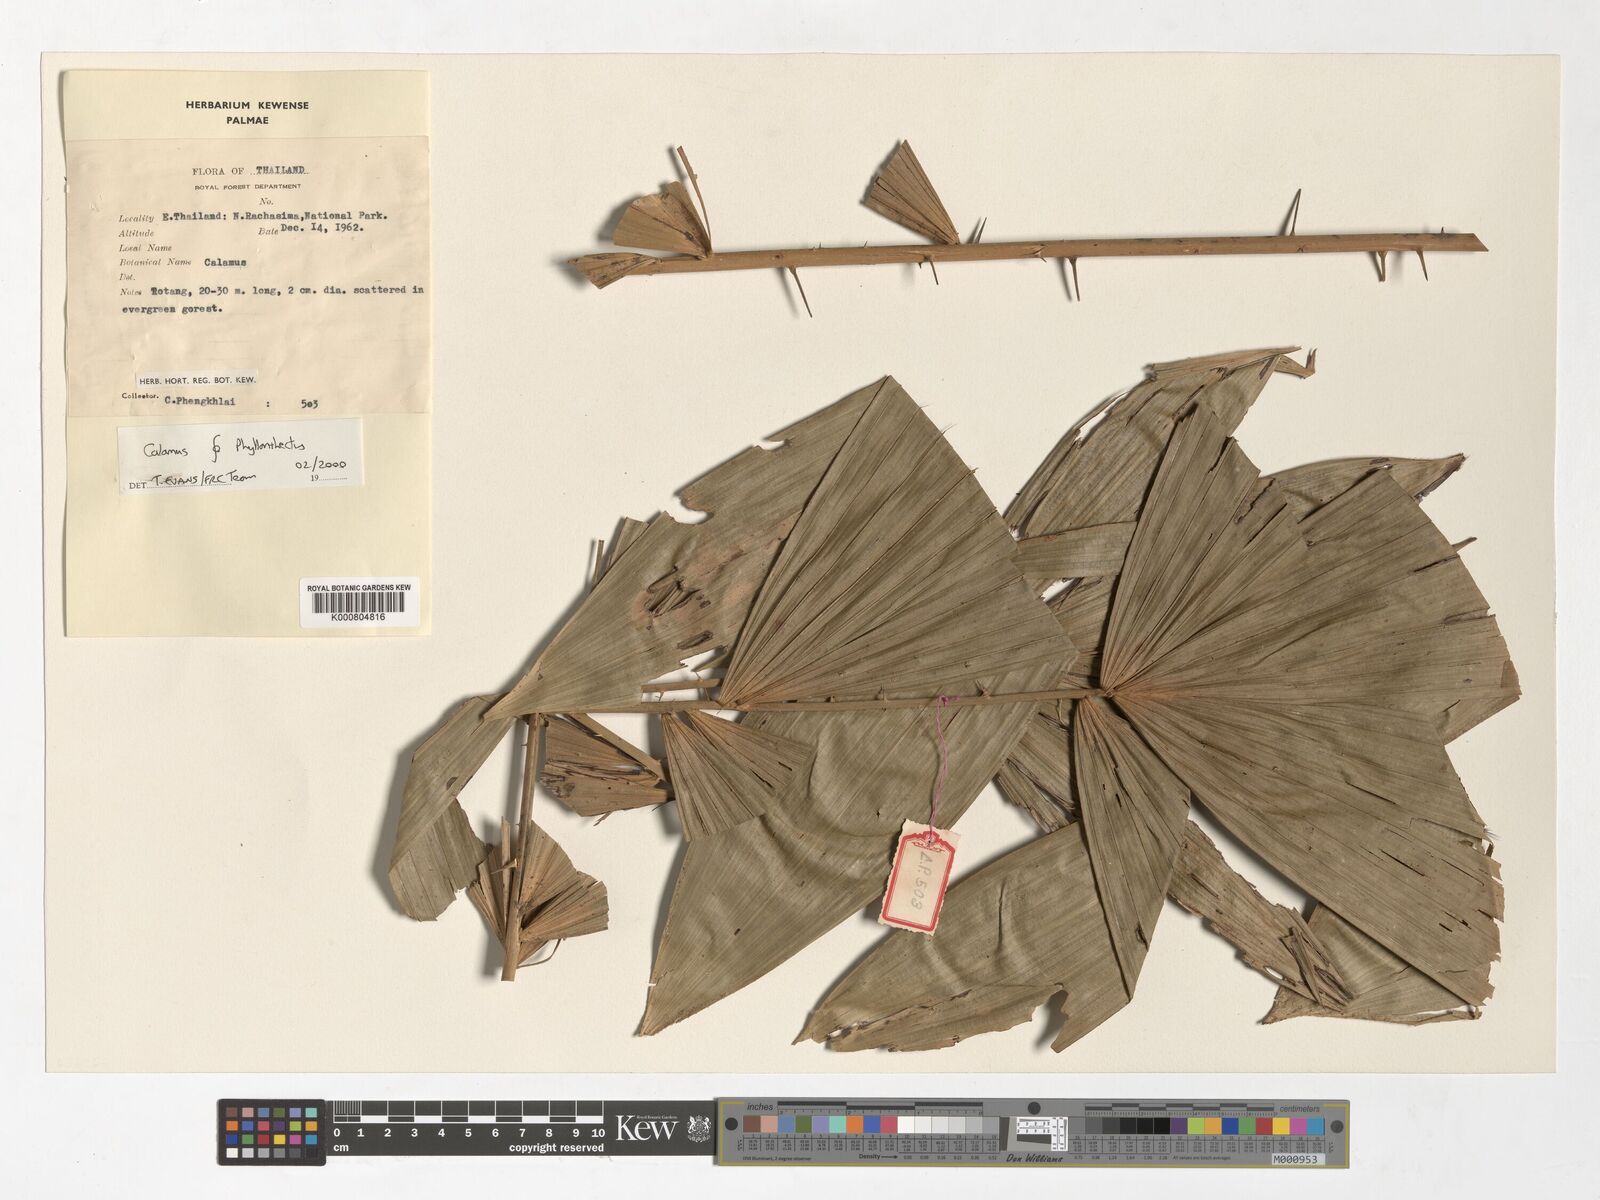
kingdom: Plantae
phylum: Tracheophyta
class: Liliopsida
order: Arecales
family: Arecaceae
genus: Calamus
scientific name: Calamus
